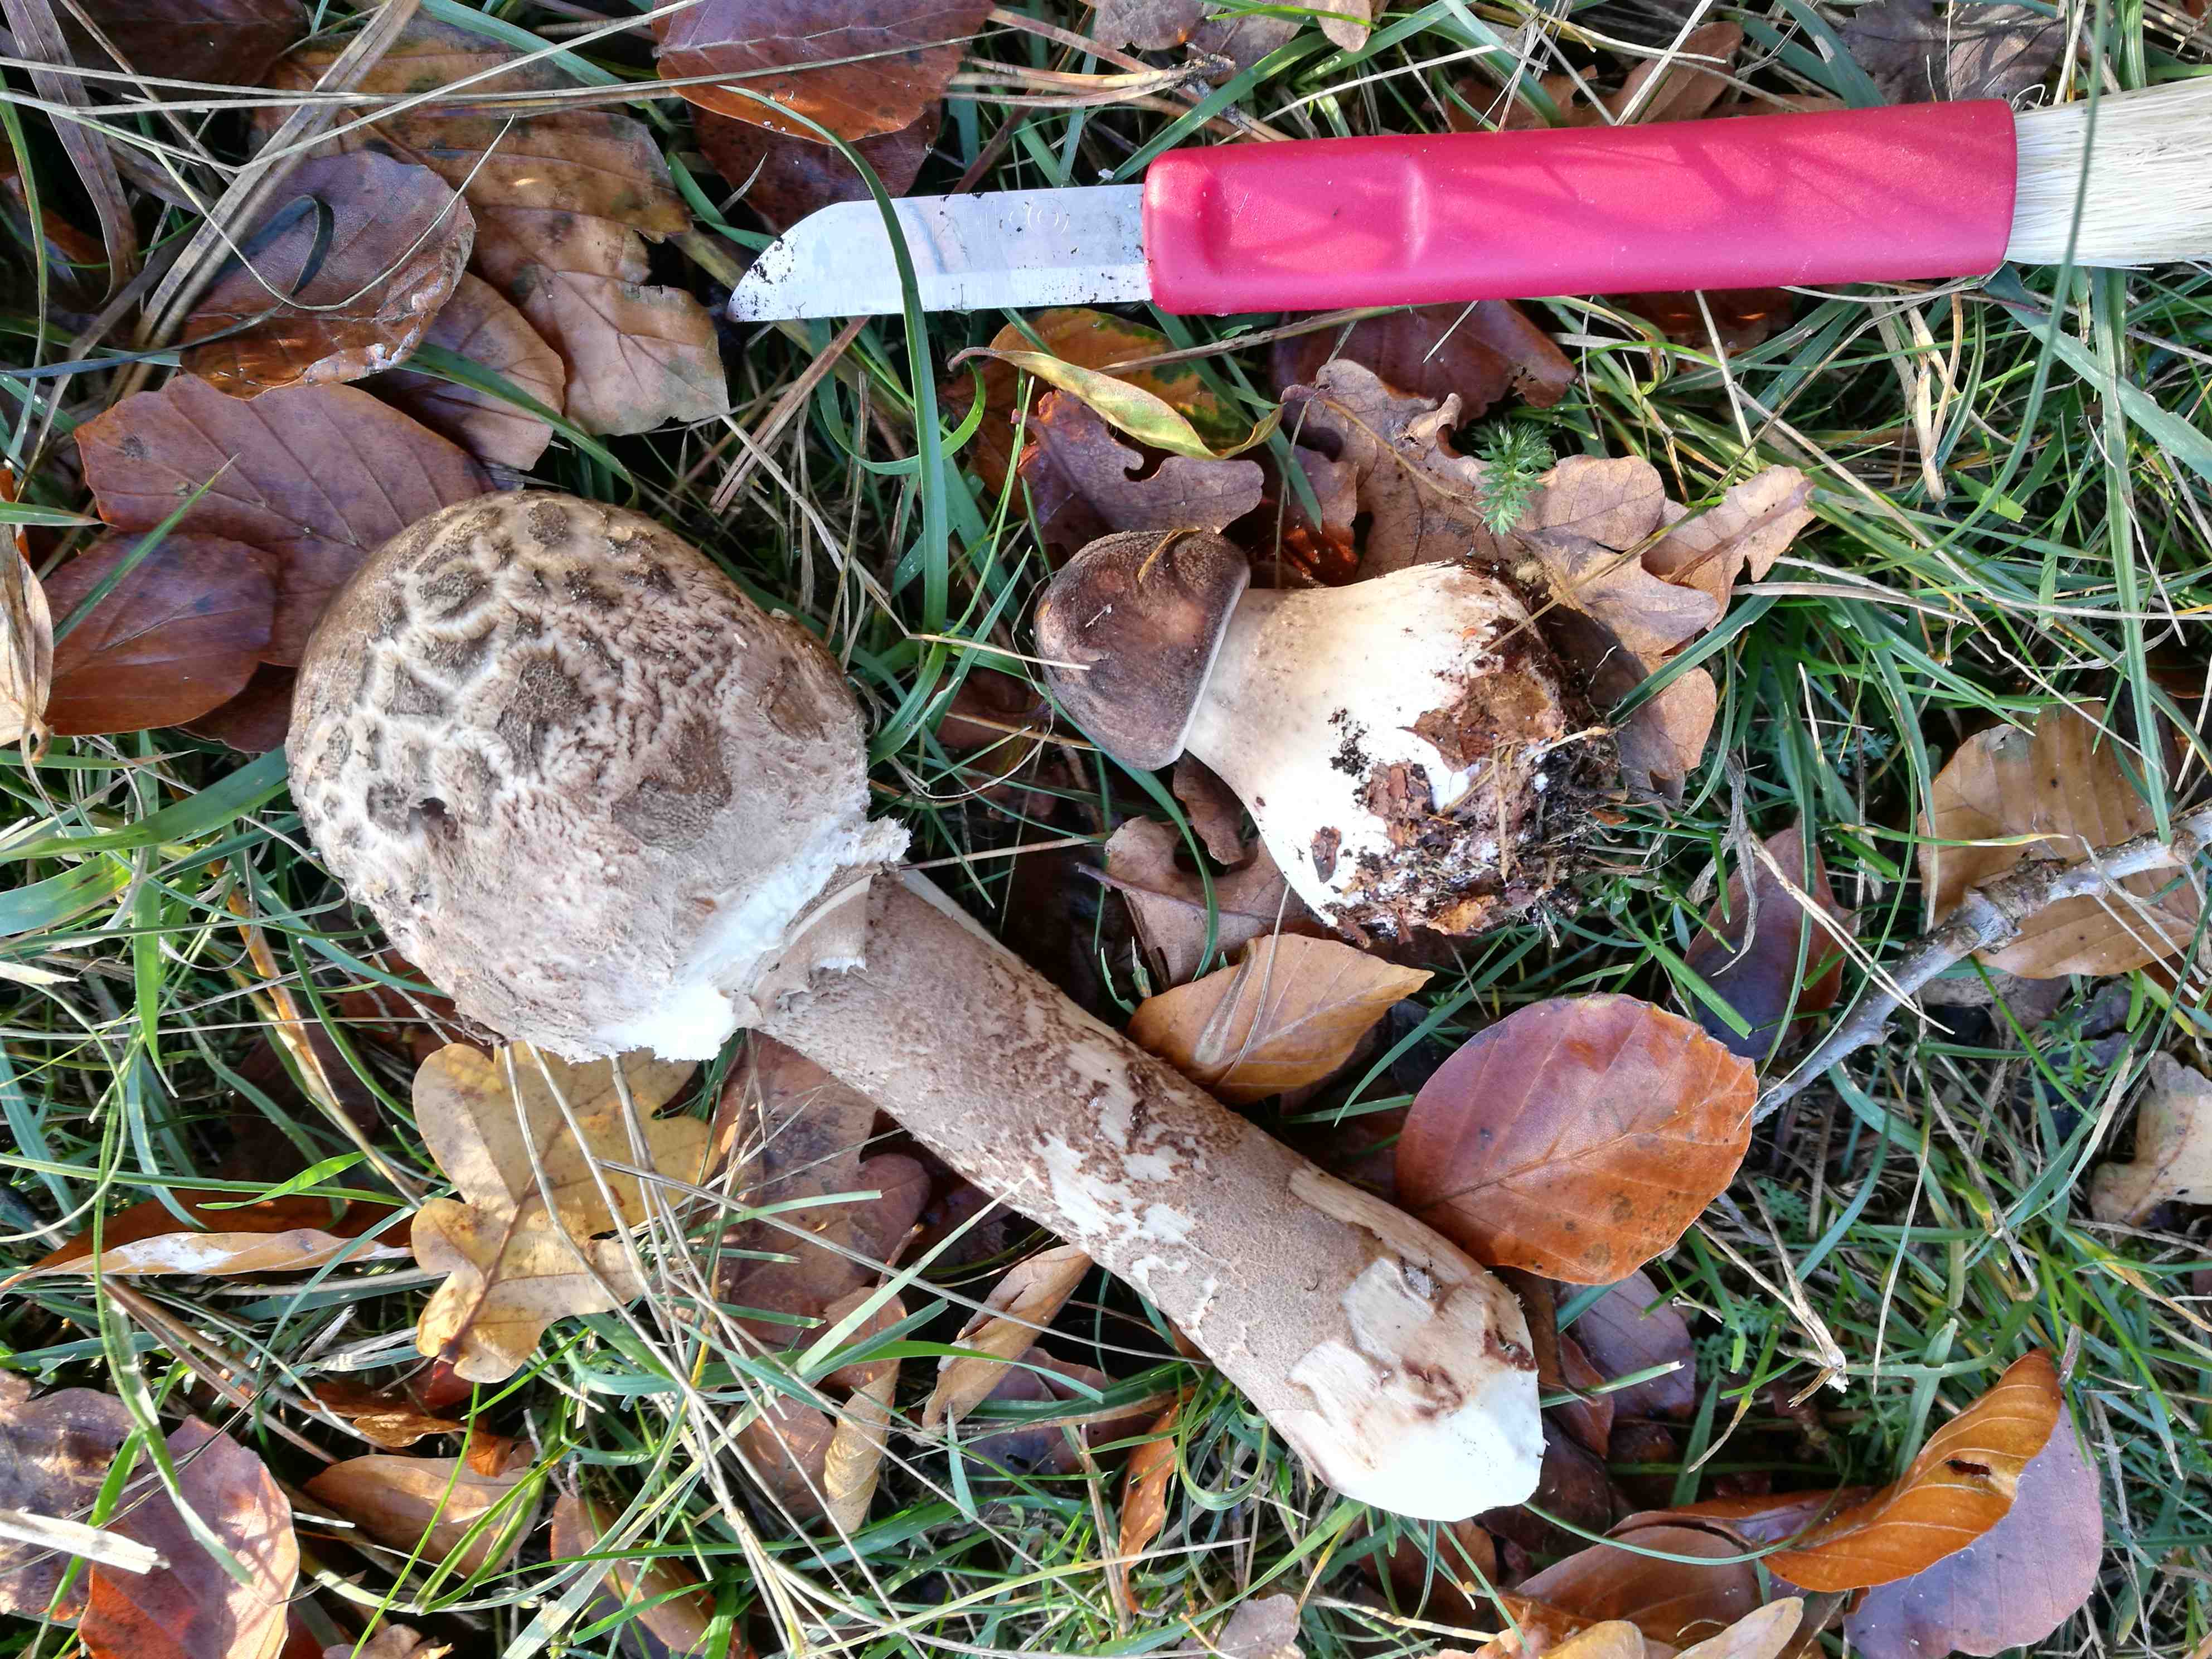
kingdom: Fungi
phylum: Basidiomycota
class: Agaricomycetes
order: Agaricales
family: Agaricaceae
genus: Macrolepiota
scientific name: Macrolepiota procera
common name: stor kæmpeparasolhat
